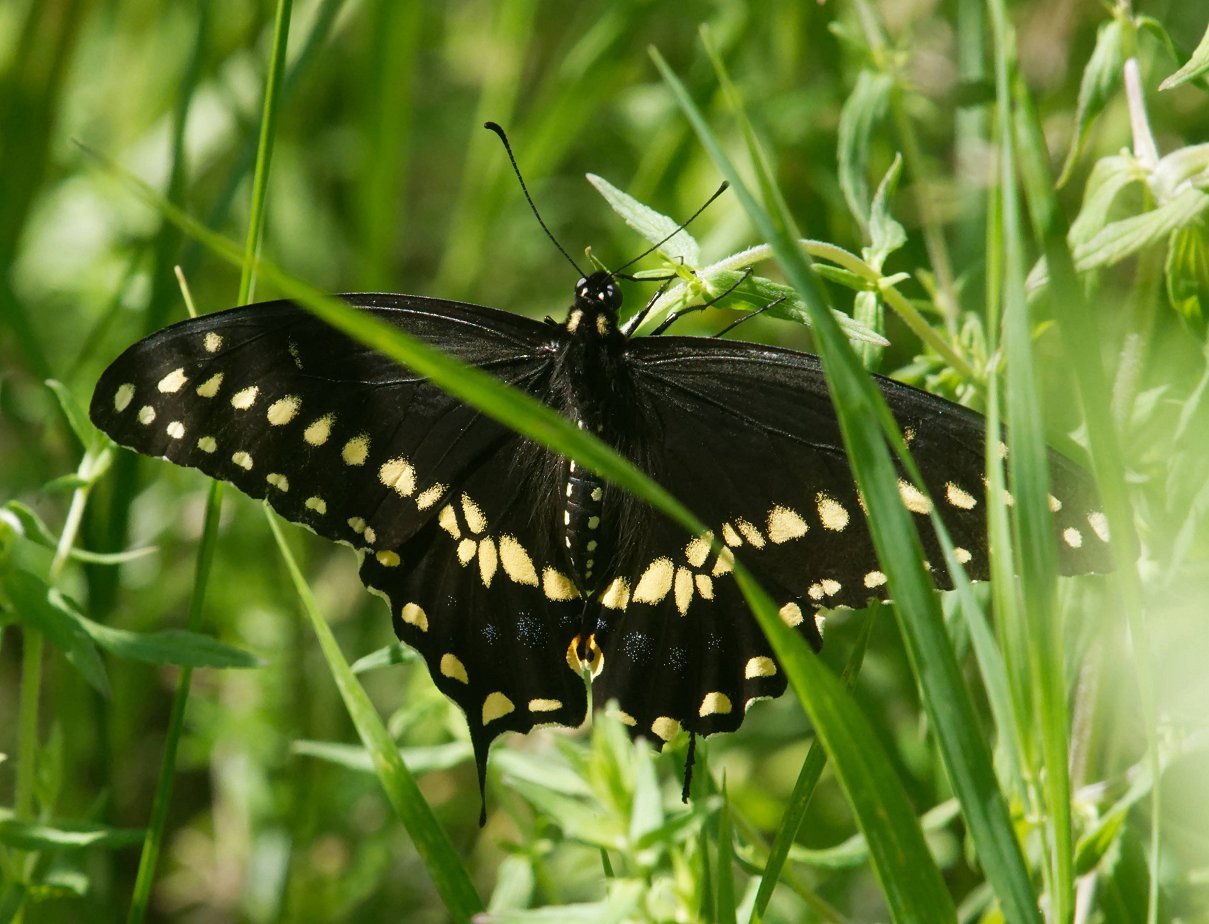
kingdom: Animalia
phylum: Arthropoda
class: Insecta
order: Lepidoptera
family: Papilionidae
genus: Papilio
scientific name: Papilio polyxenes
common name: Black Swallowtail
